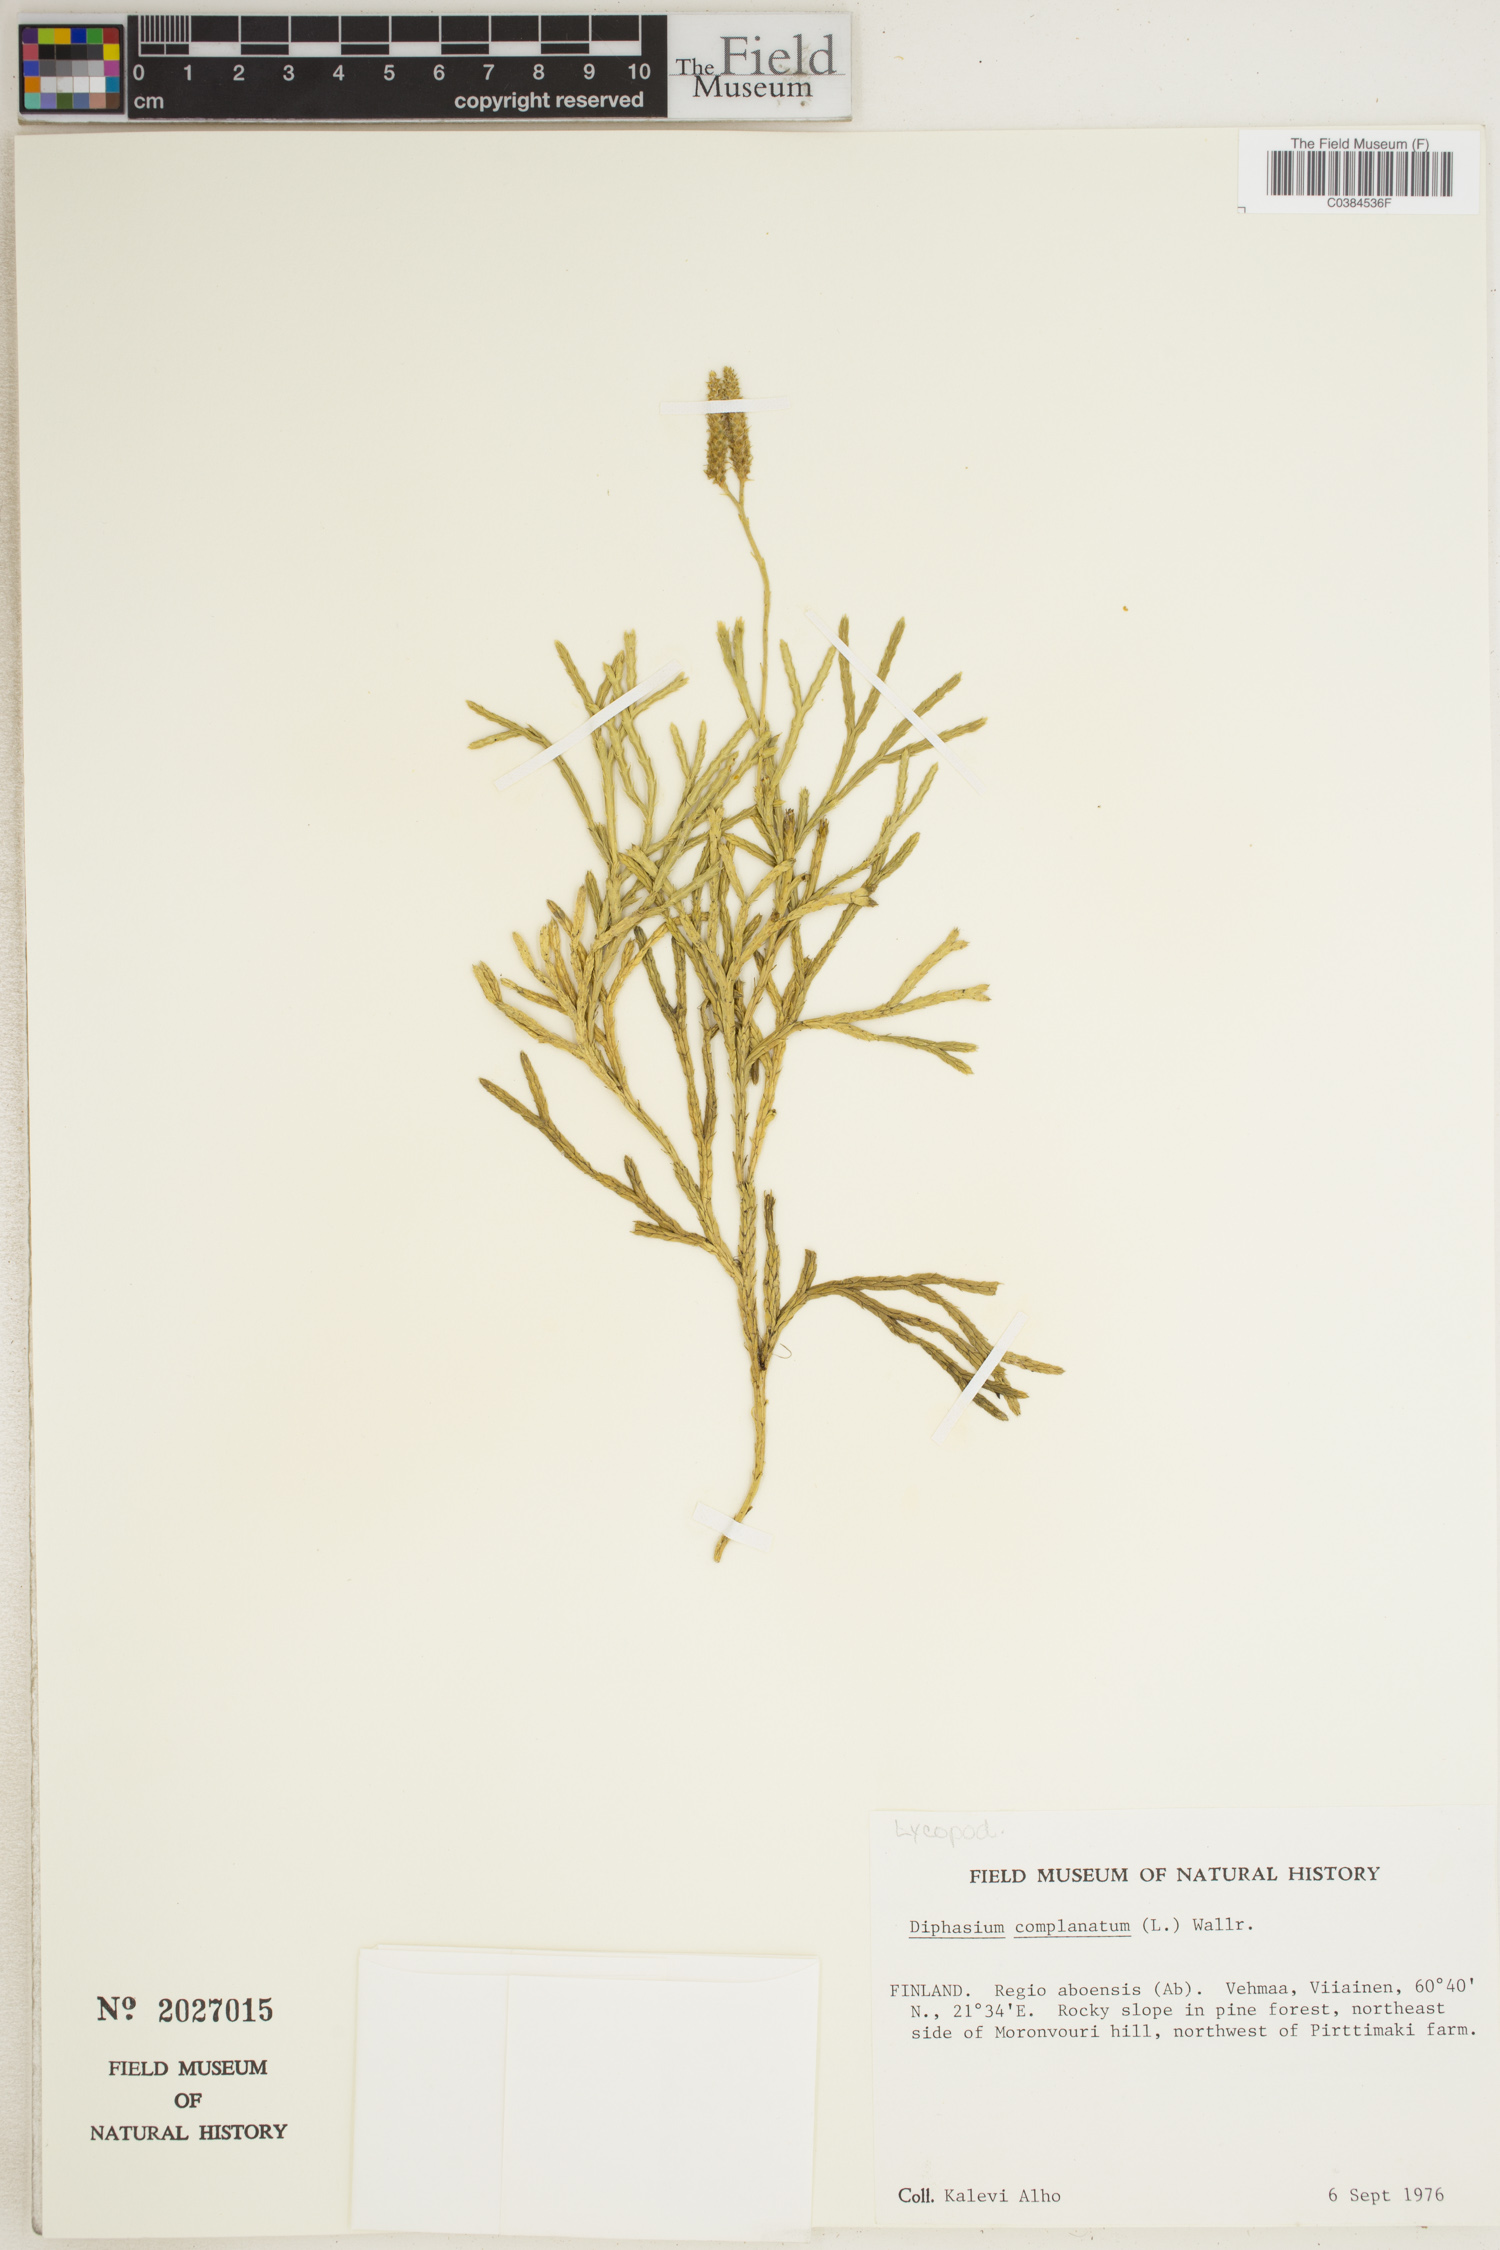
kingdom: Plantae
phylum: Tracheophyta
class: Lycopodiopsida
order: Lycopodiales
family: Lycopodiaceae
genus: Diphasiastrum
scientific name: Diphasiastrum complanatum
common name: Northern running-pine
